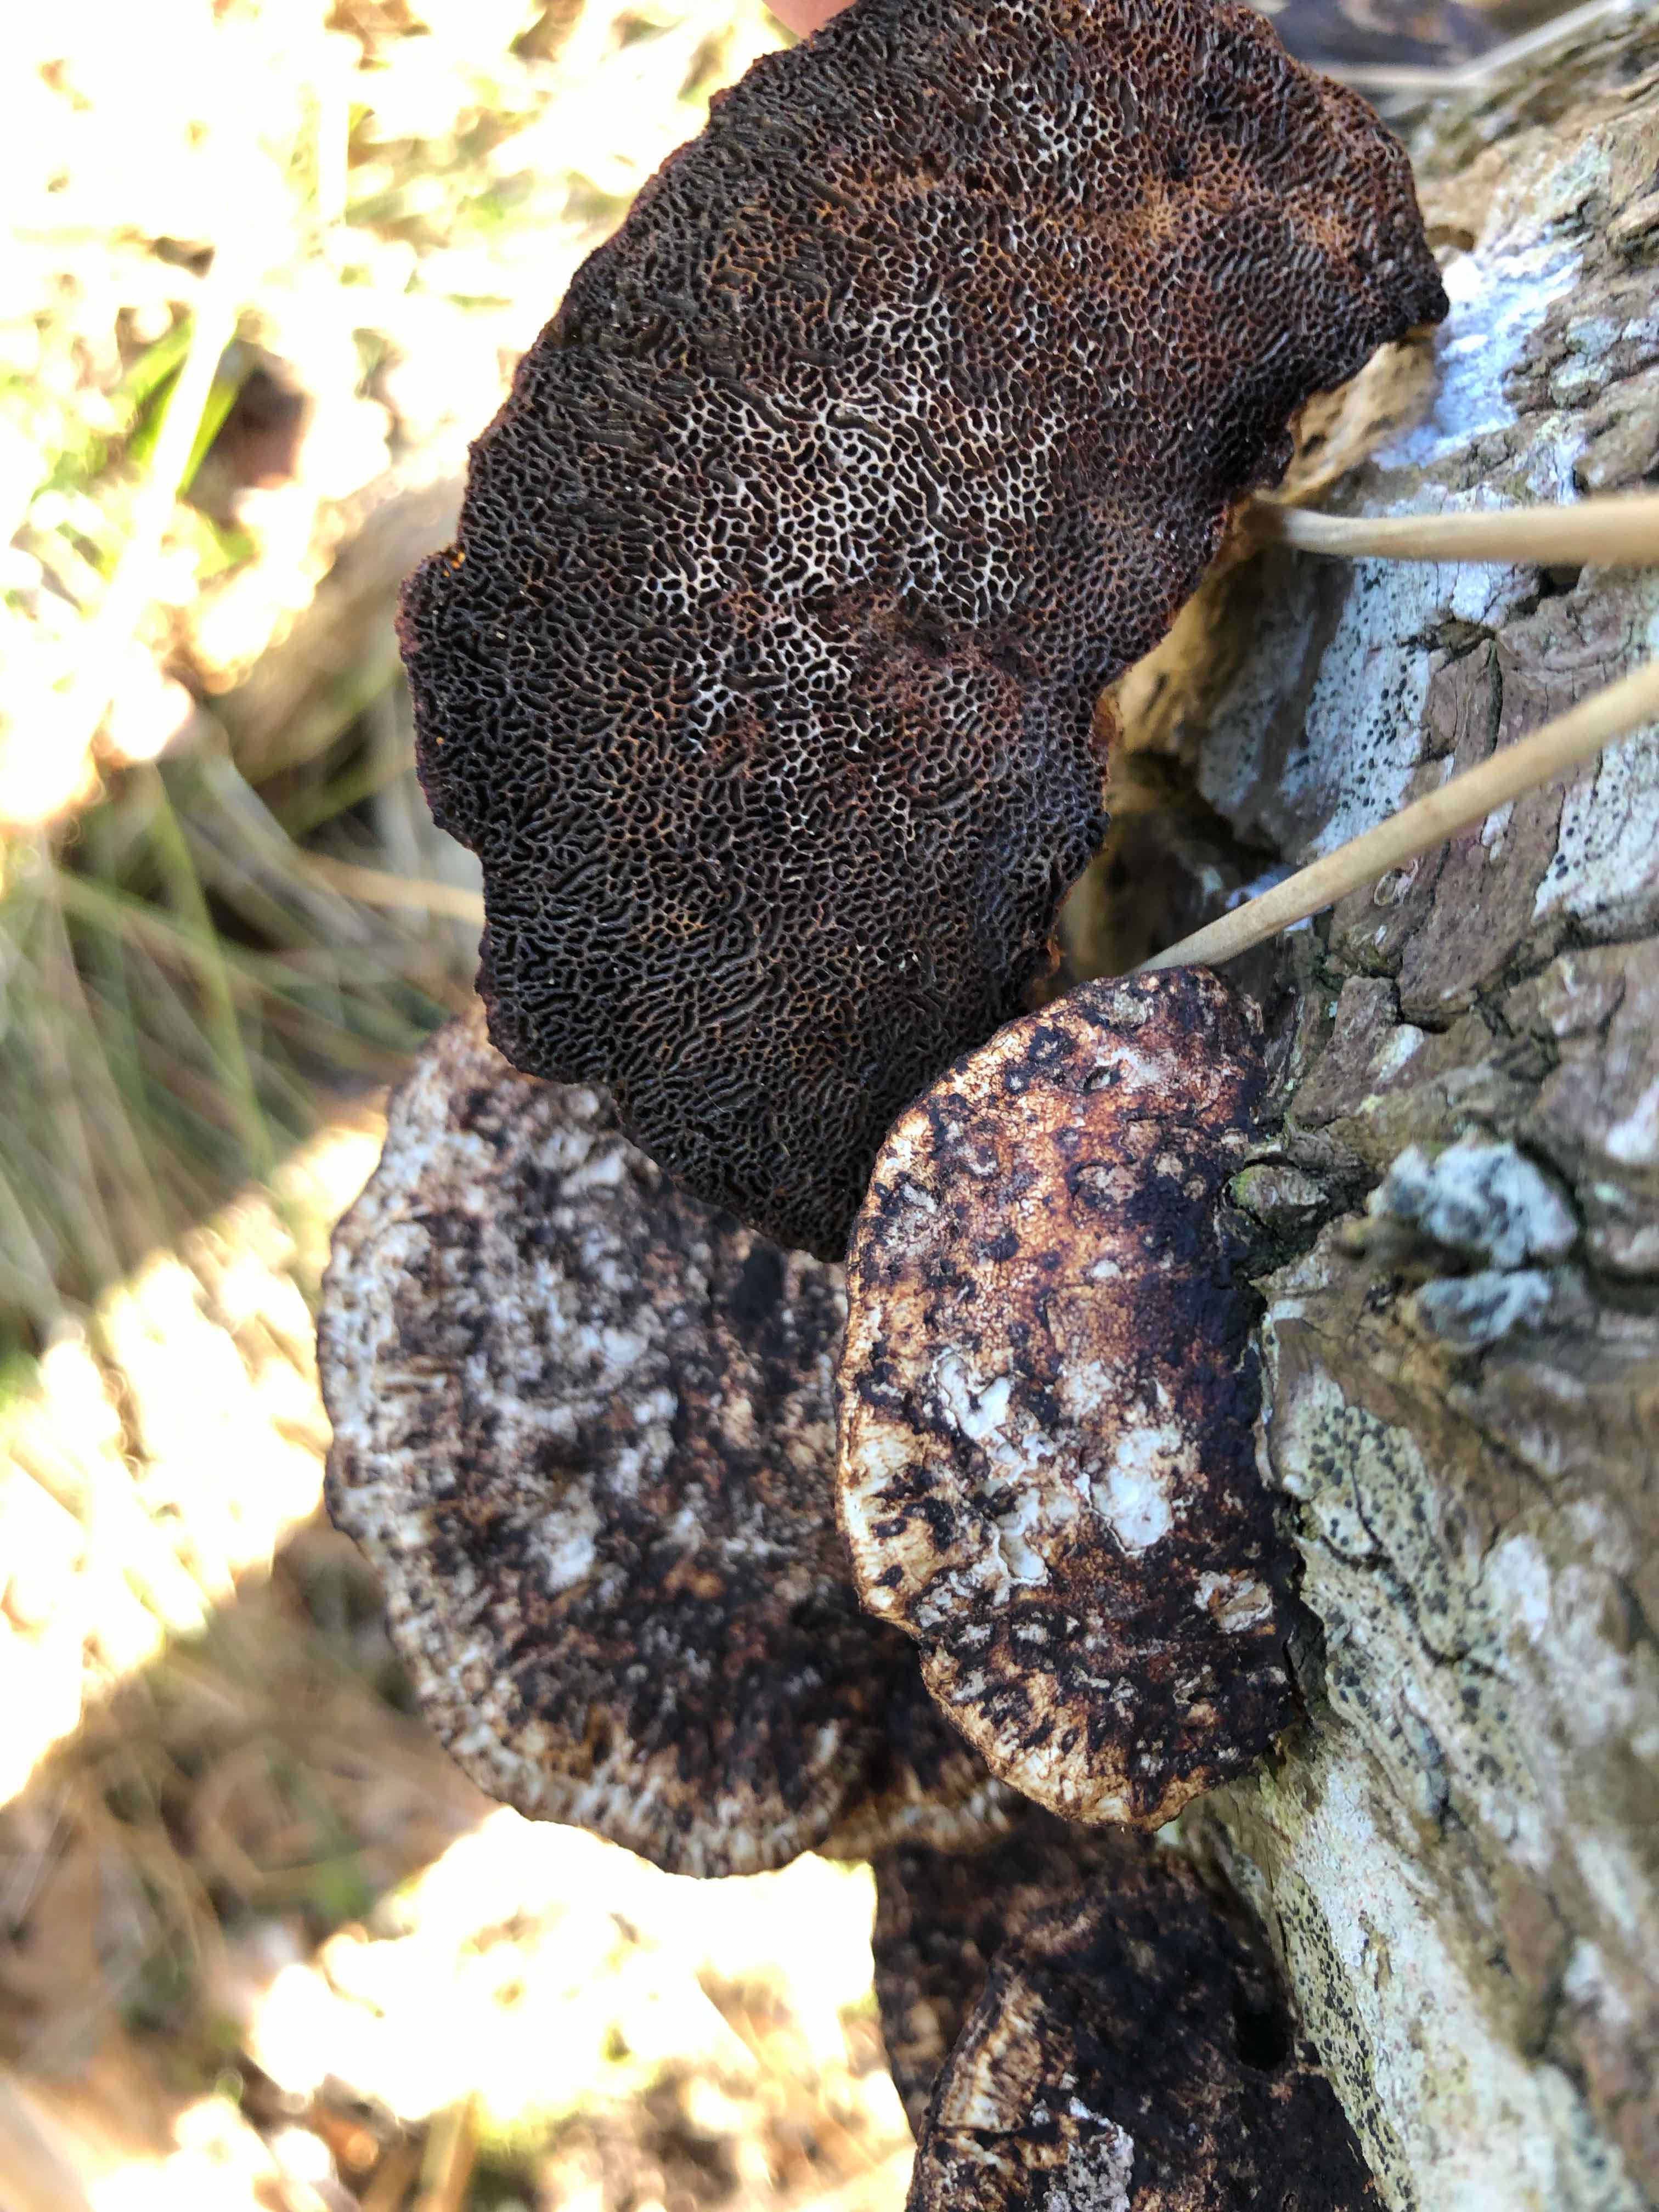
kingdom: Fungi
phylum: Basidiomycota
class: Agaricomycetes
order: Polyporales
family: Polyporaceae
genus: Daedaleopsis
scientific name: Daedaleopsis confragosa
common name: rødmende læderporesvamp
